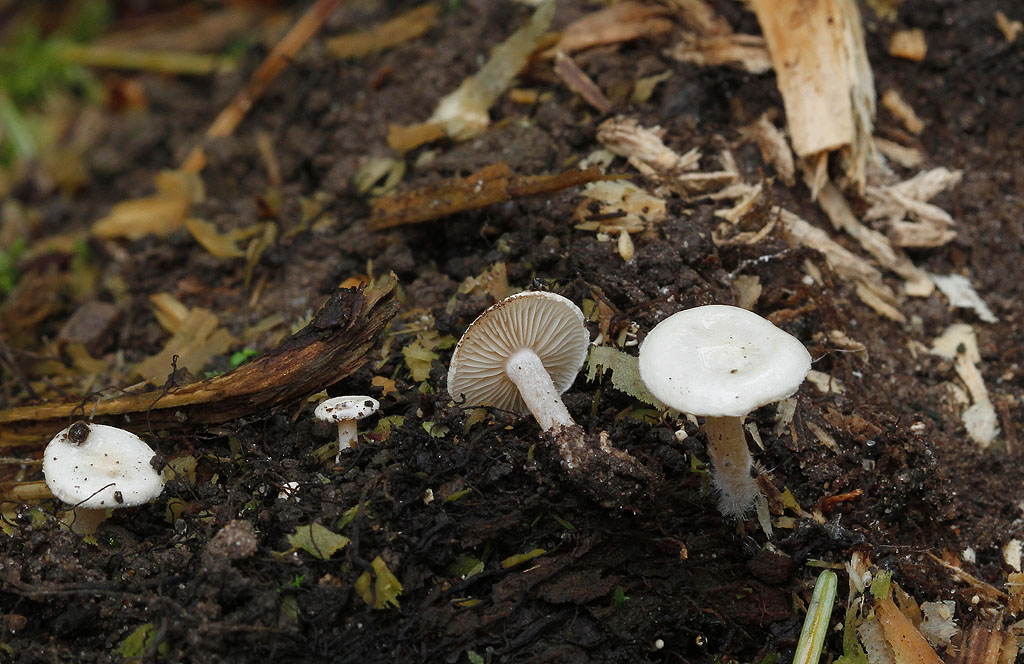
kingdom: Fungi
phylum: Basidiomycota
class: Agaricomycetes
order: Agaricales
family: Tricholomataceae
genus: Ripartites
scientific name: Ripartites tricholoma
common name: almindelig skæghat
